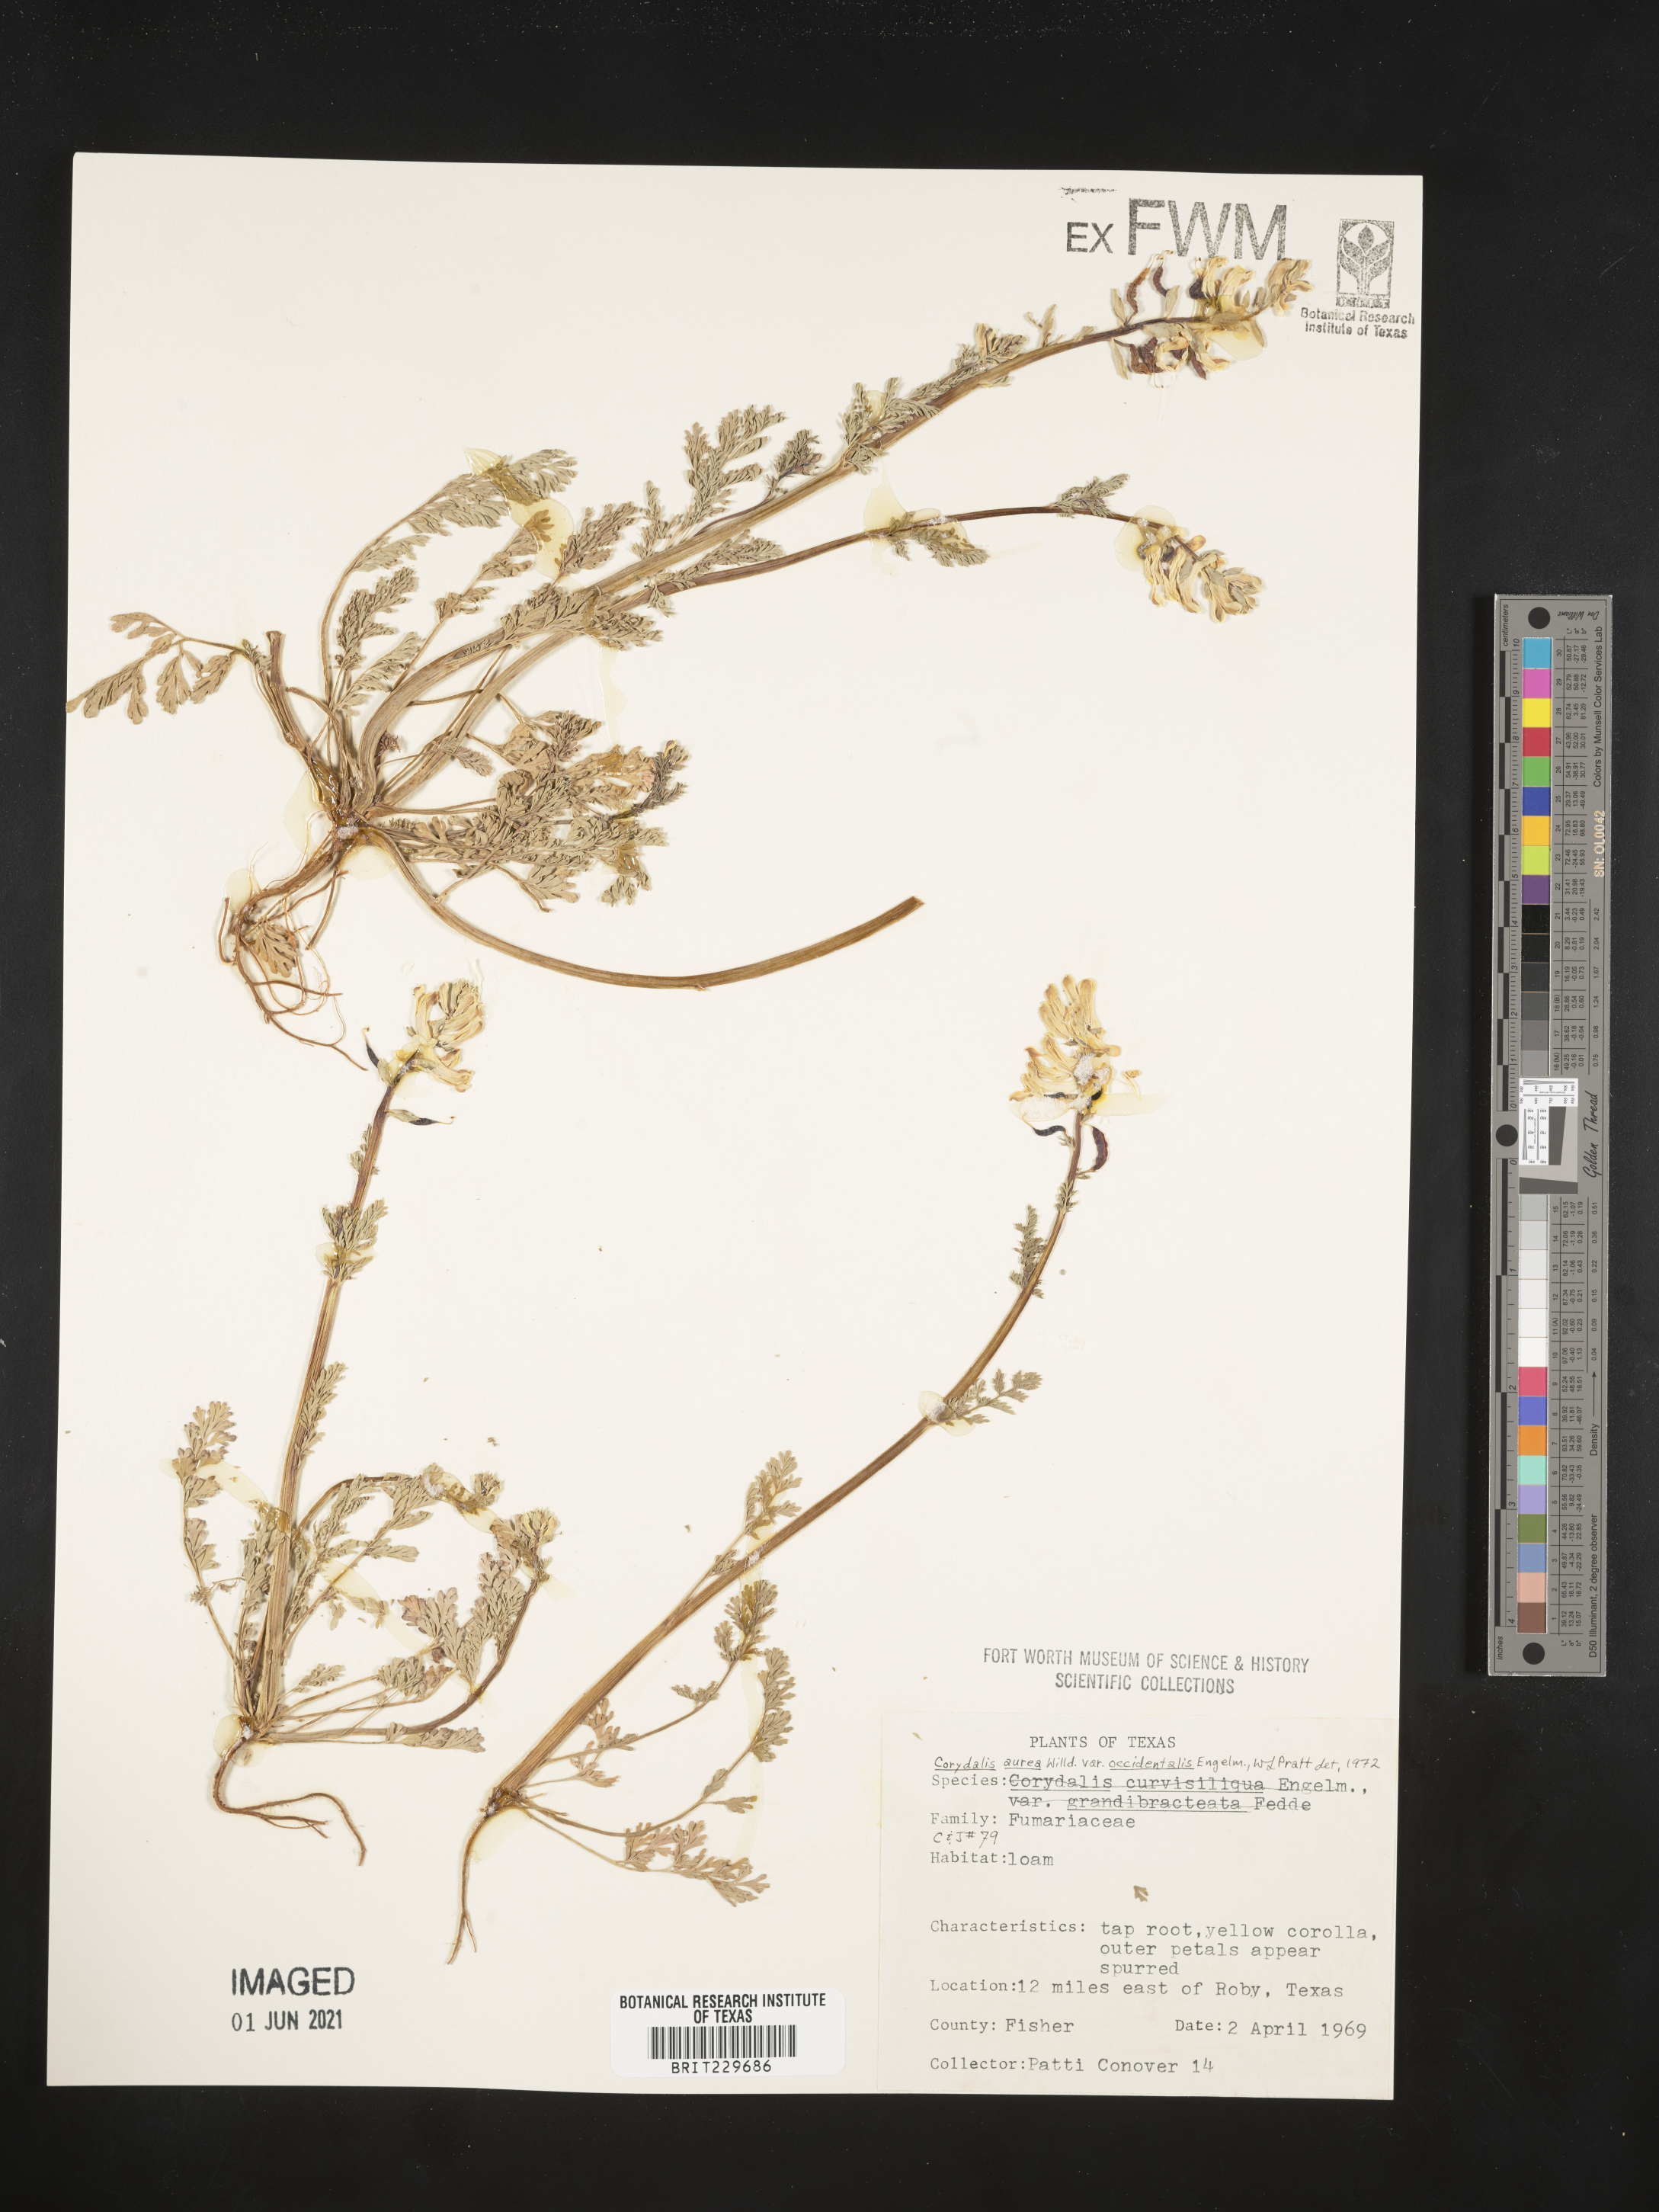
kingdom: Plantae
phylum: Tracheophyta
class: Magnoliopsida
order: Ranunculales
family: Papaveraceae
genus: Corydalis
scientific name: Corydalis curvisiliqua
